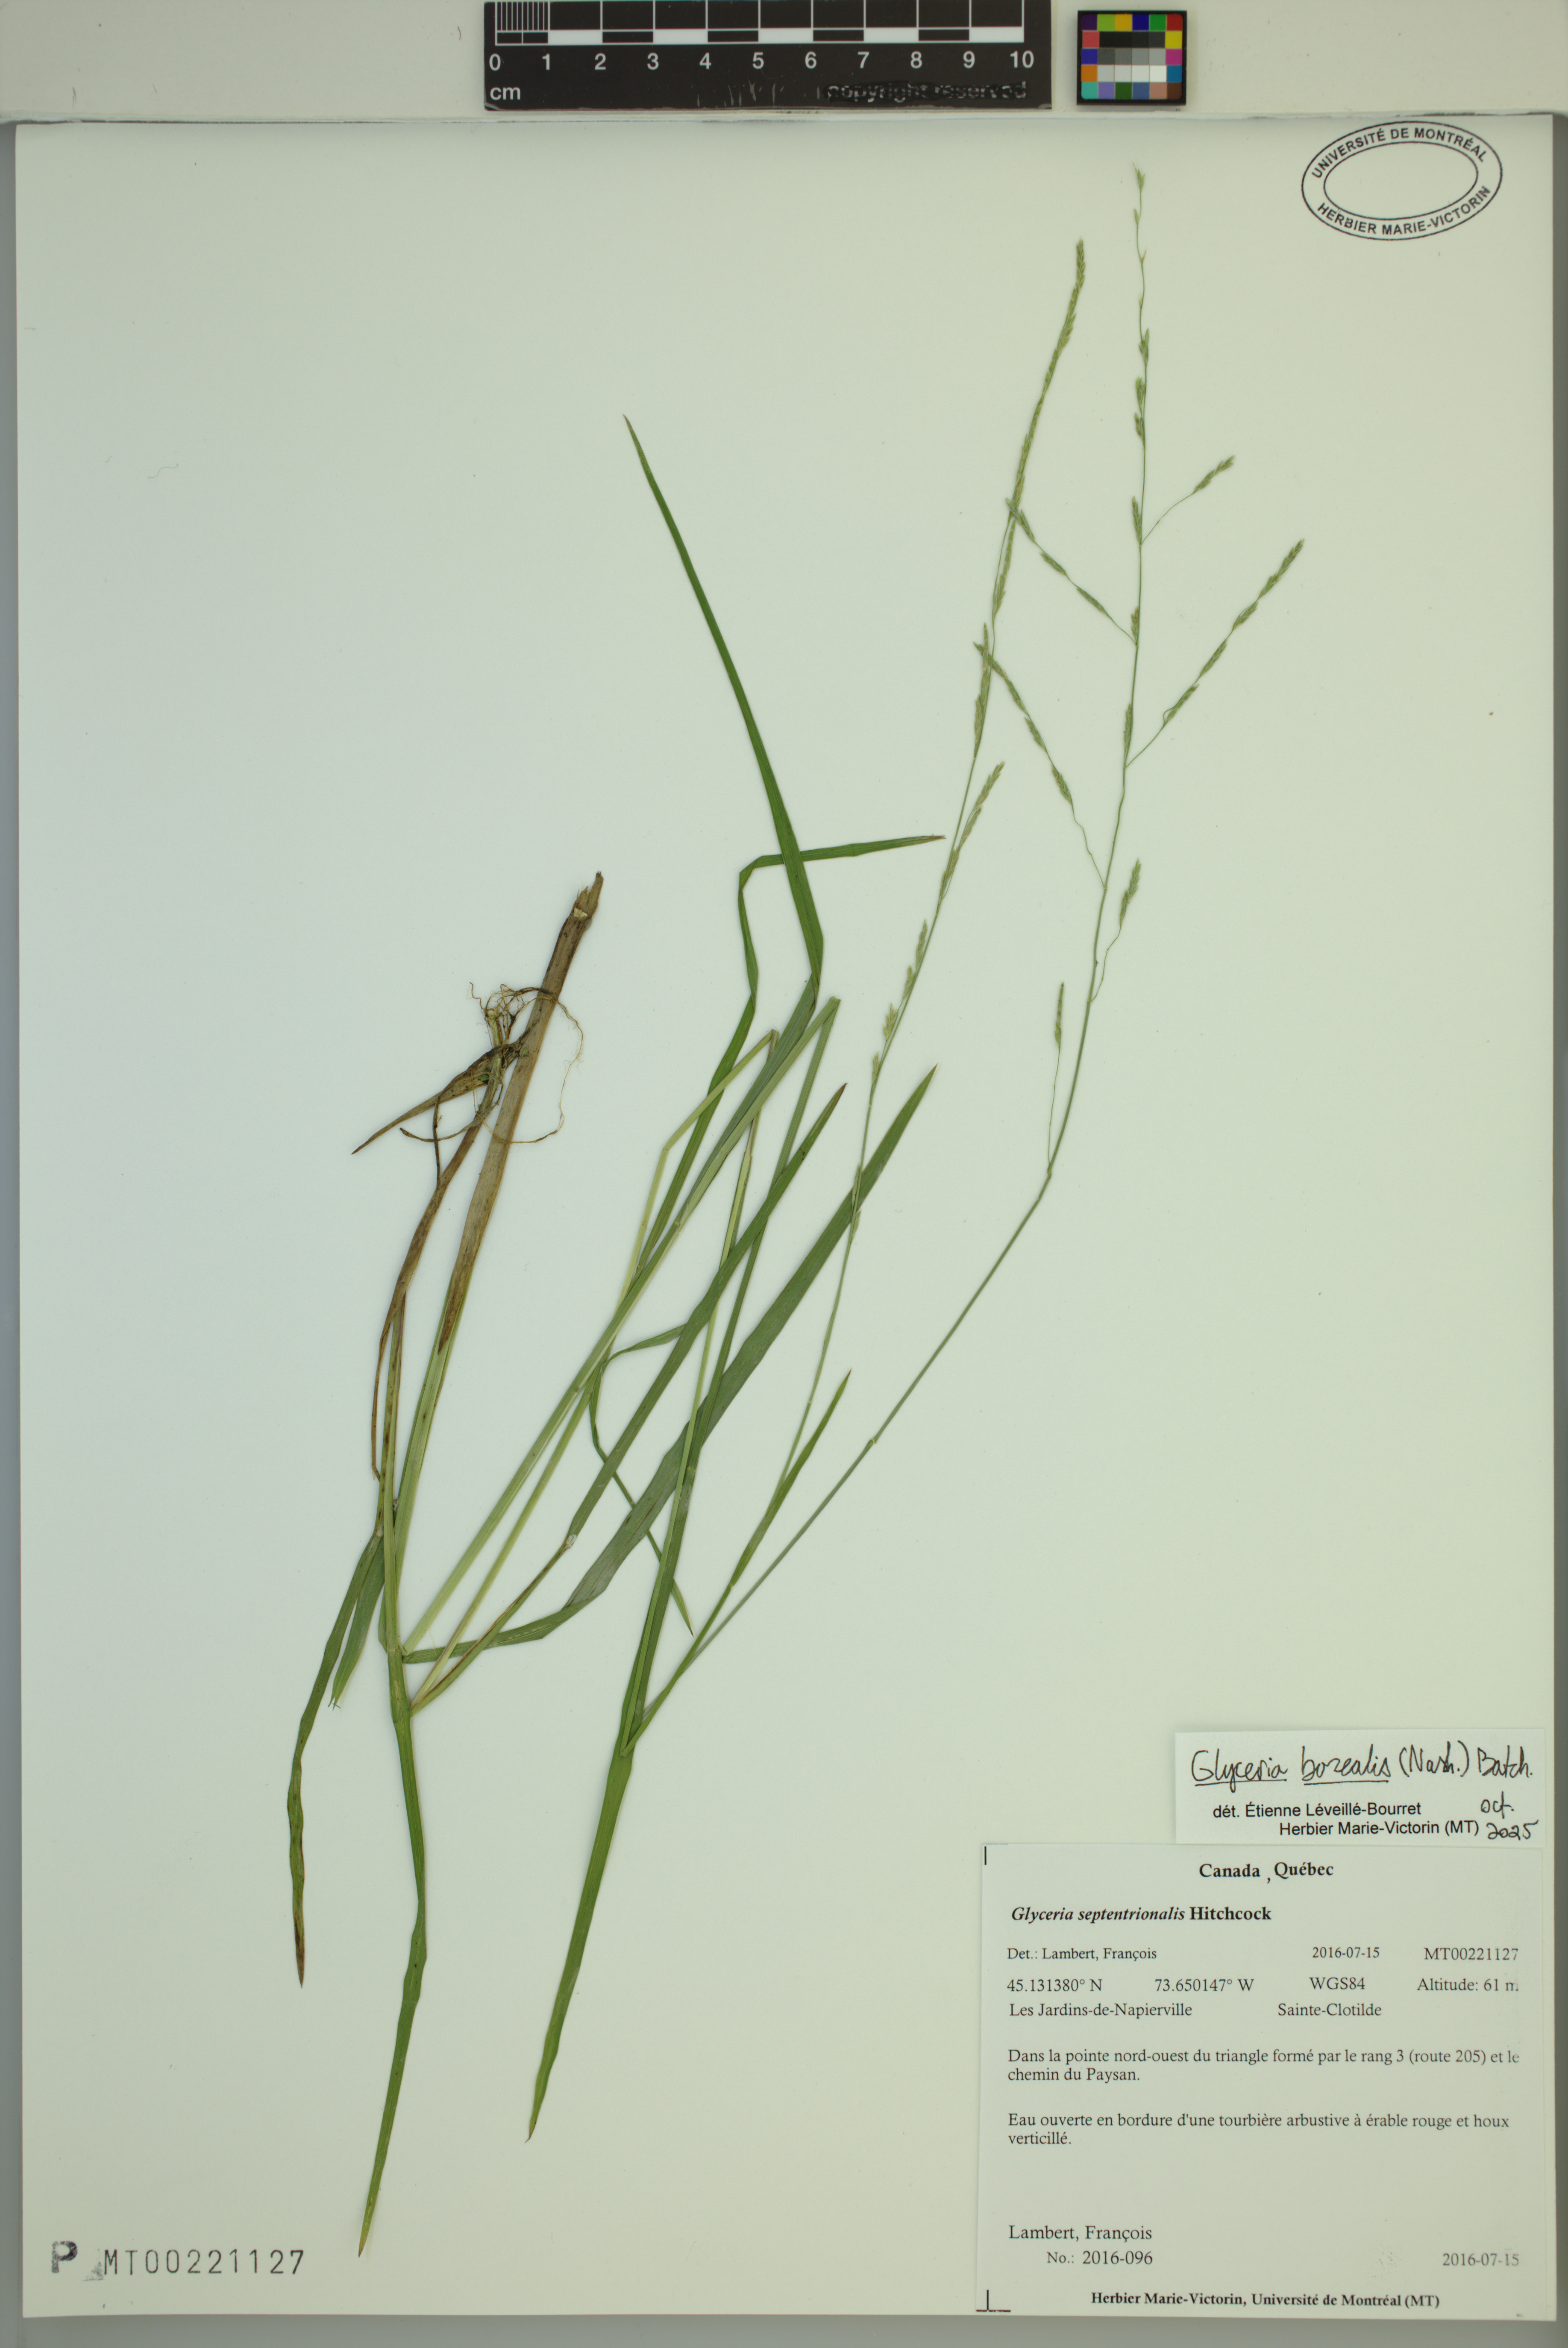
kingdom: Plantae
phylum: Tracheophyta
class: Liliopsida
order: Poales
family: Poaceae
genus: Glyceria
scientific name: Glyceria septentrionalis
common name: Eastern mannagrass
